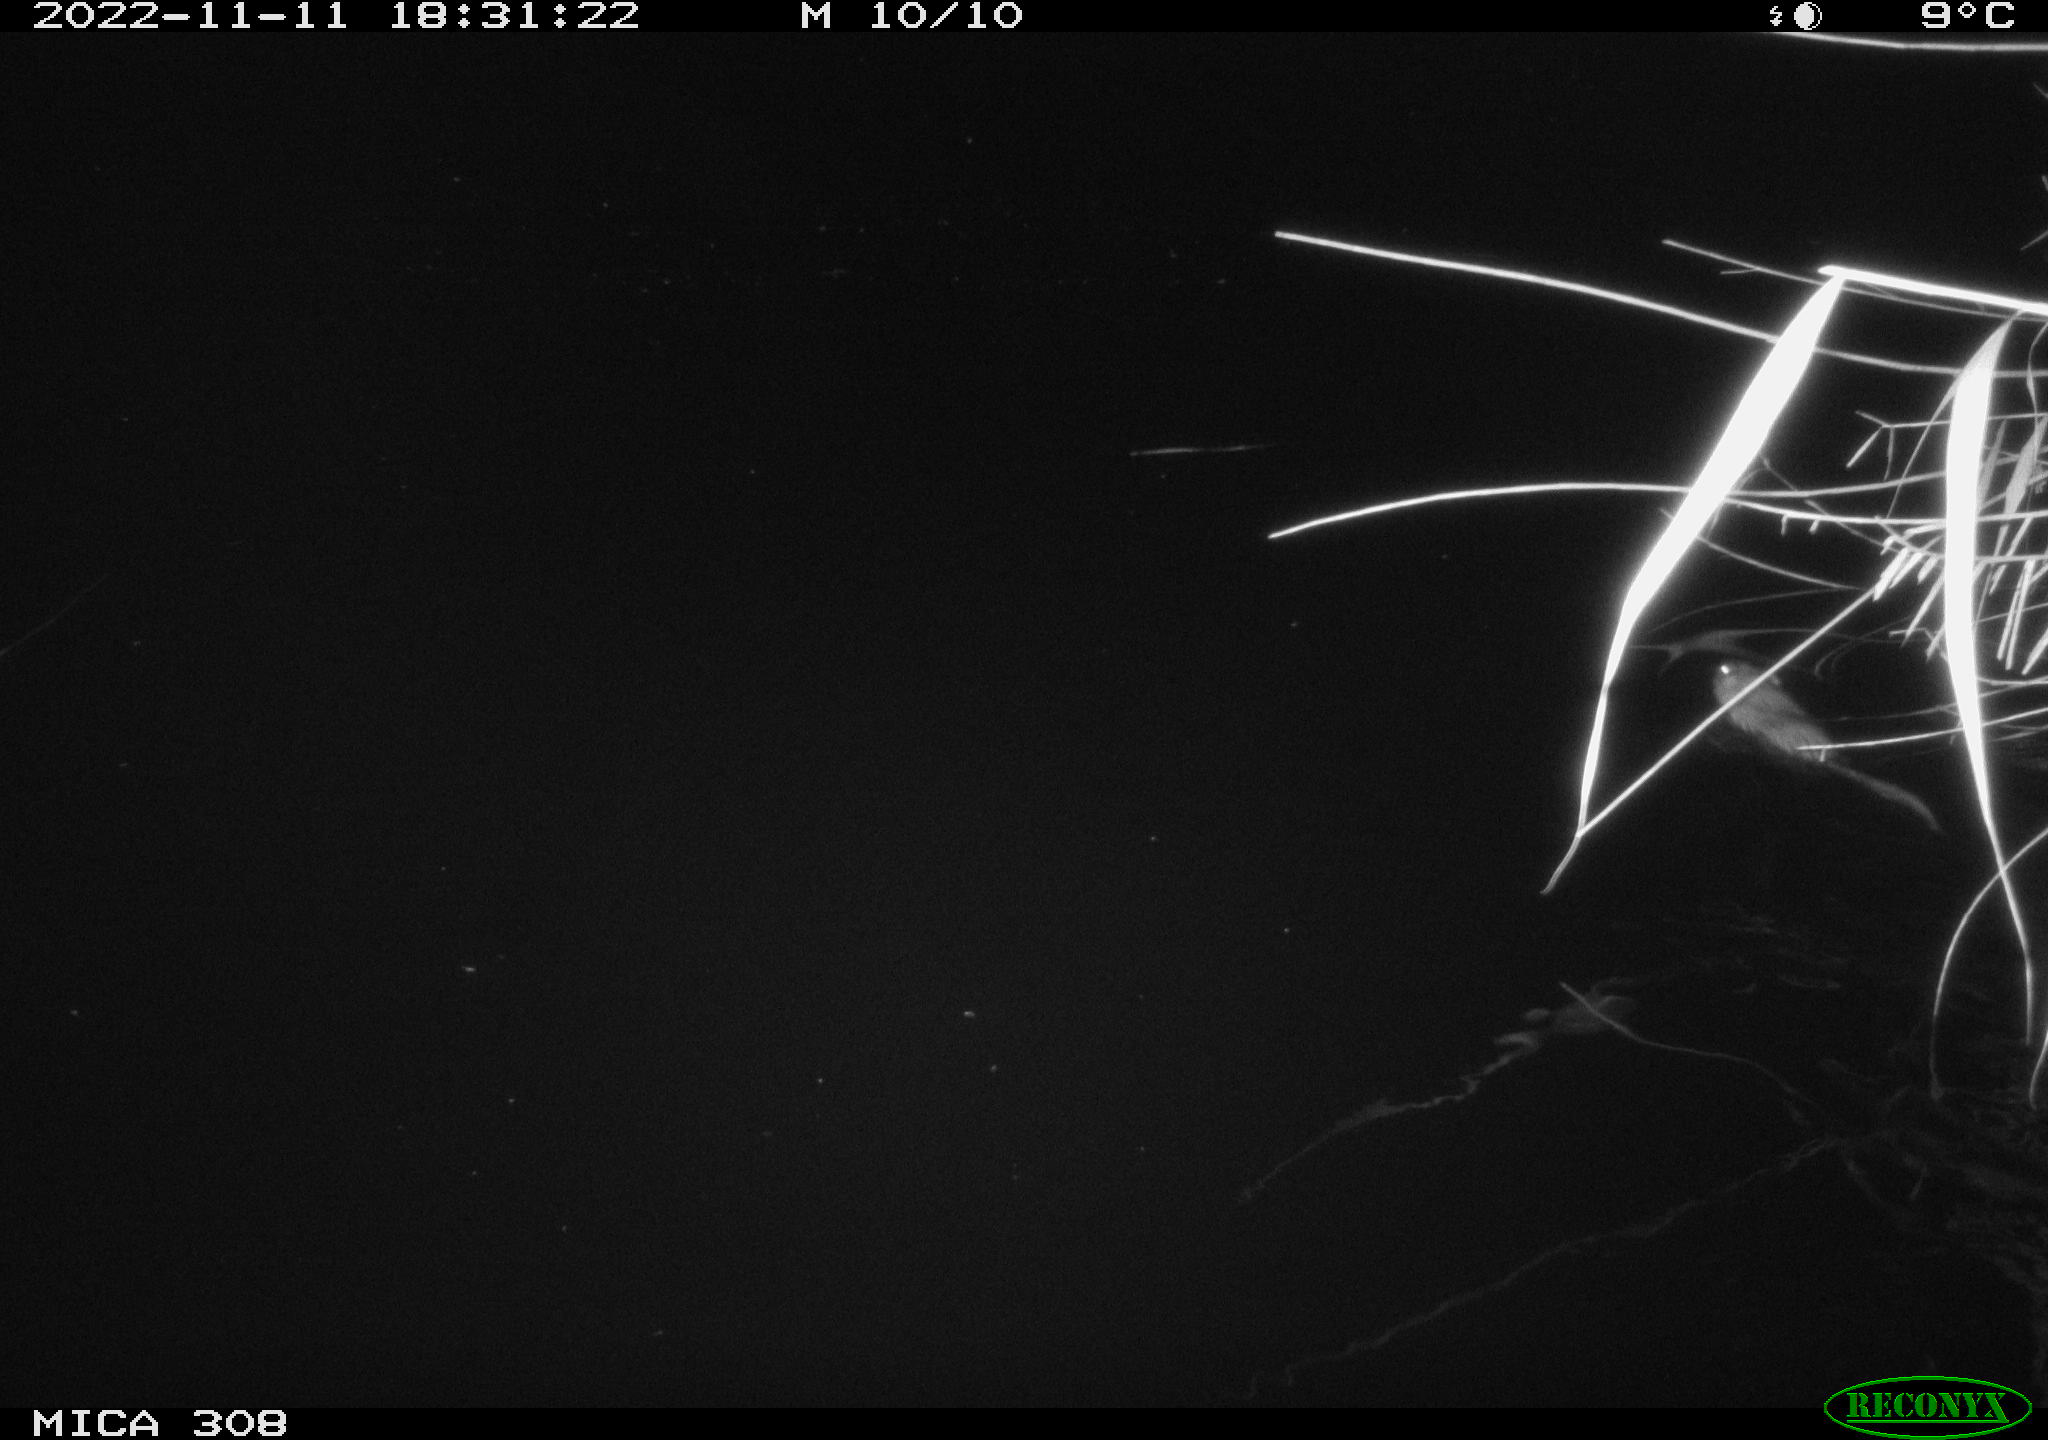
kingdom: Animalia
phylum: Chordata
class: Mammalia
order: Rodentia
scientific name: Rodentia
